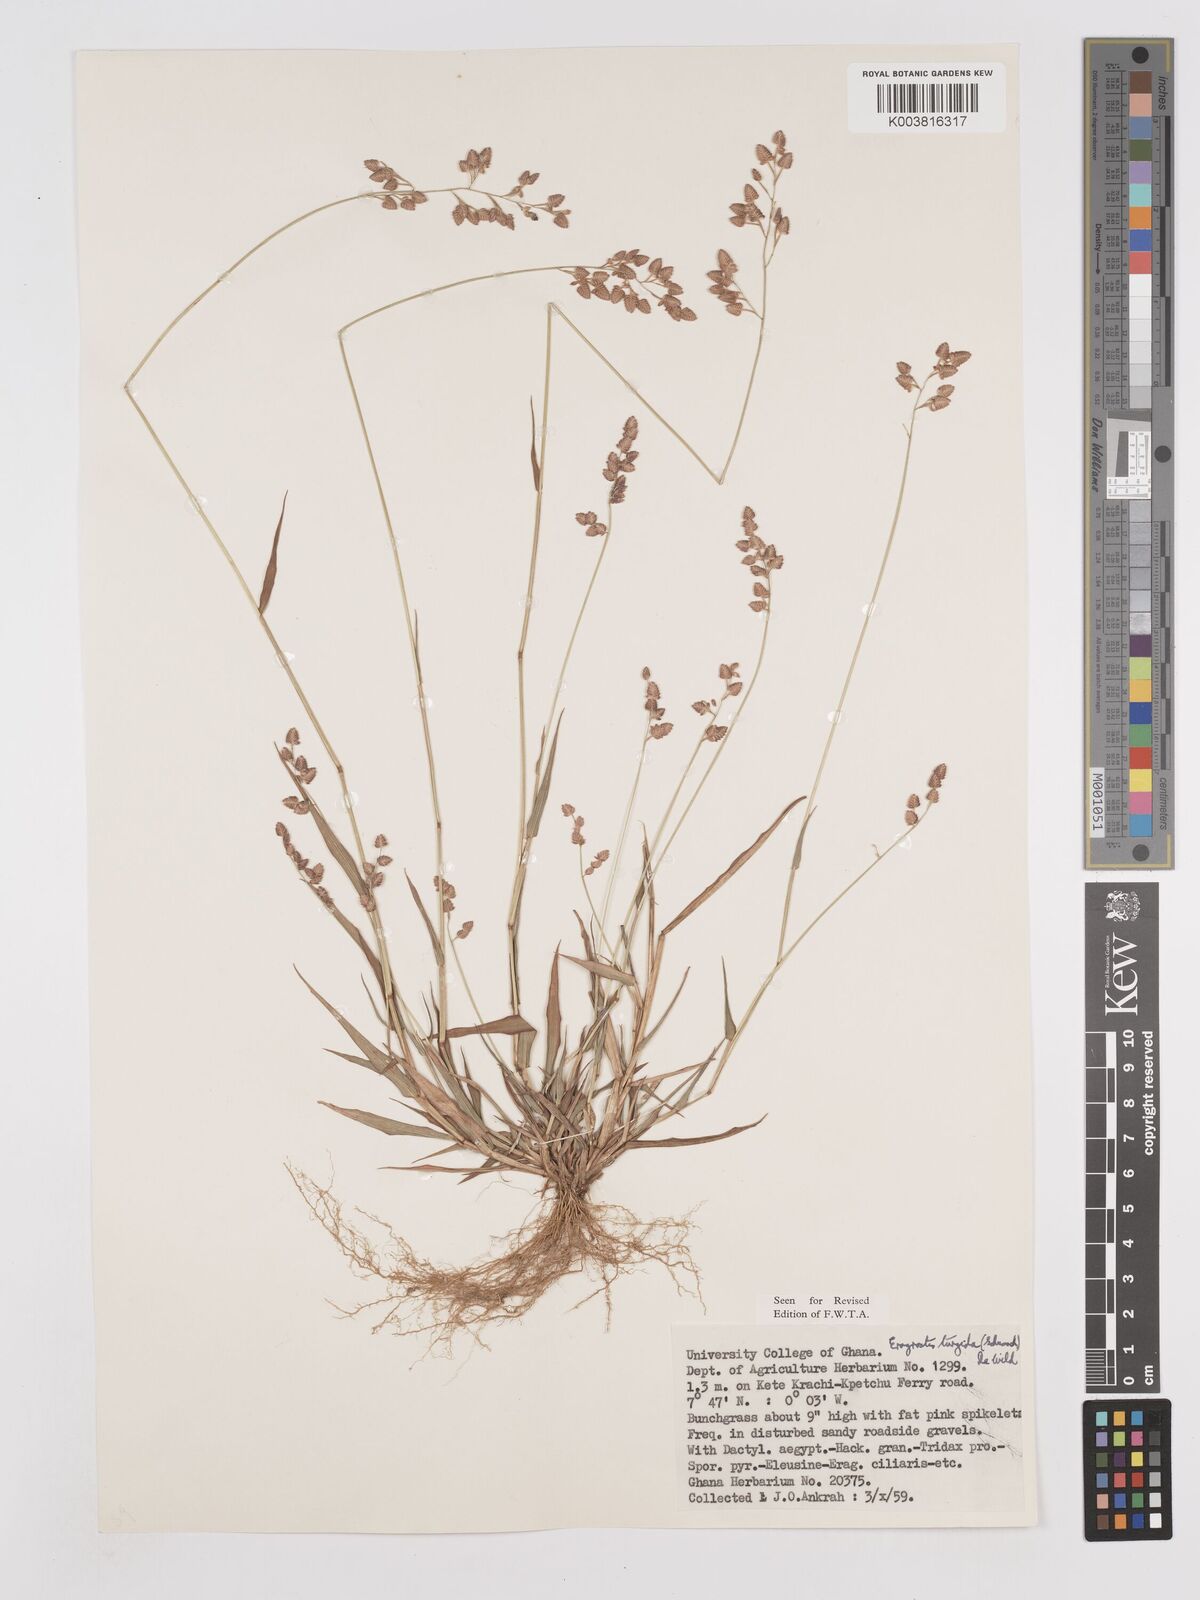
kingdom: Plantae
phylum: Tracheophyta
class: Liliopsida
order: Poales
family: Poaceae
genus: Eragrostis
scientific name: Eragrostis turgida
